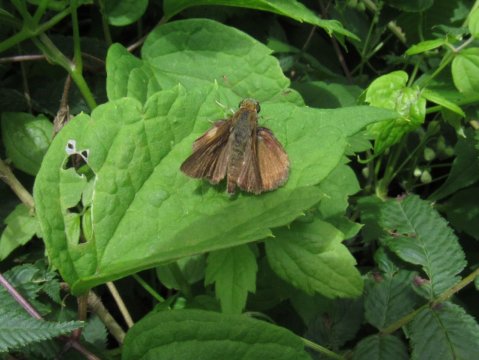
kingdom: Animalia
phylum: Arthropoda
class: Insecta
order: Lepidoptera
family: Hesperiidae
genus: Euphyes
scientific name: Euphyes
